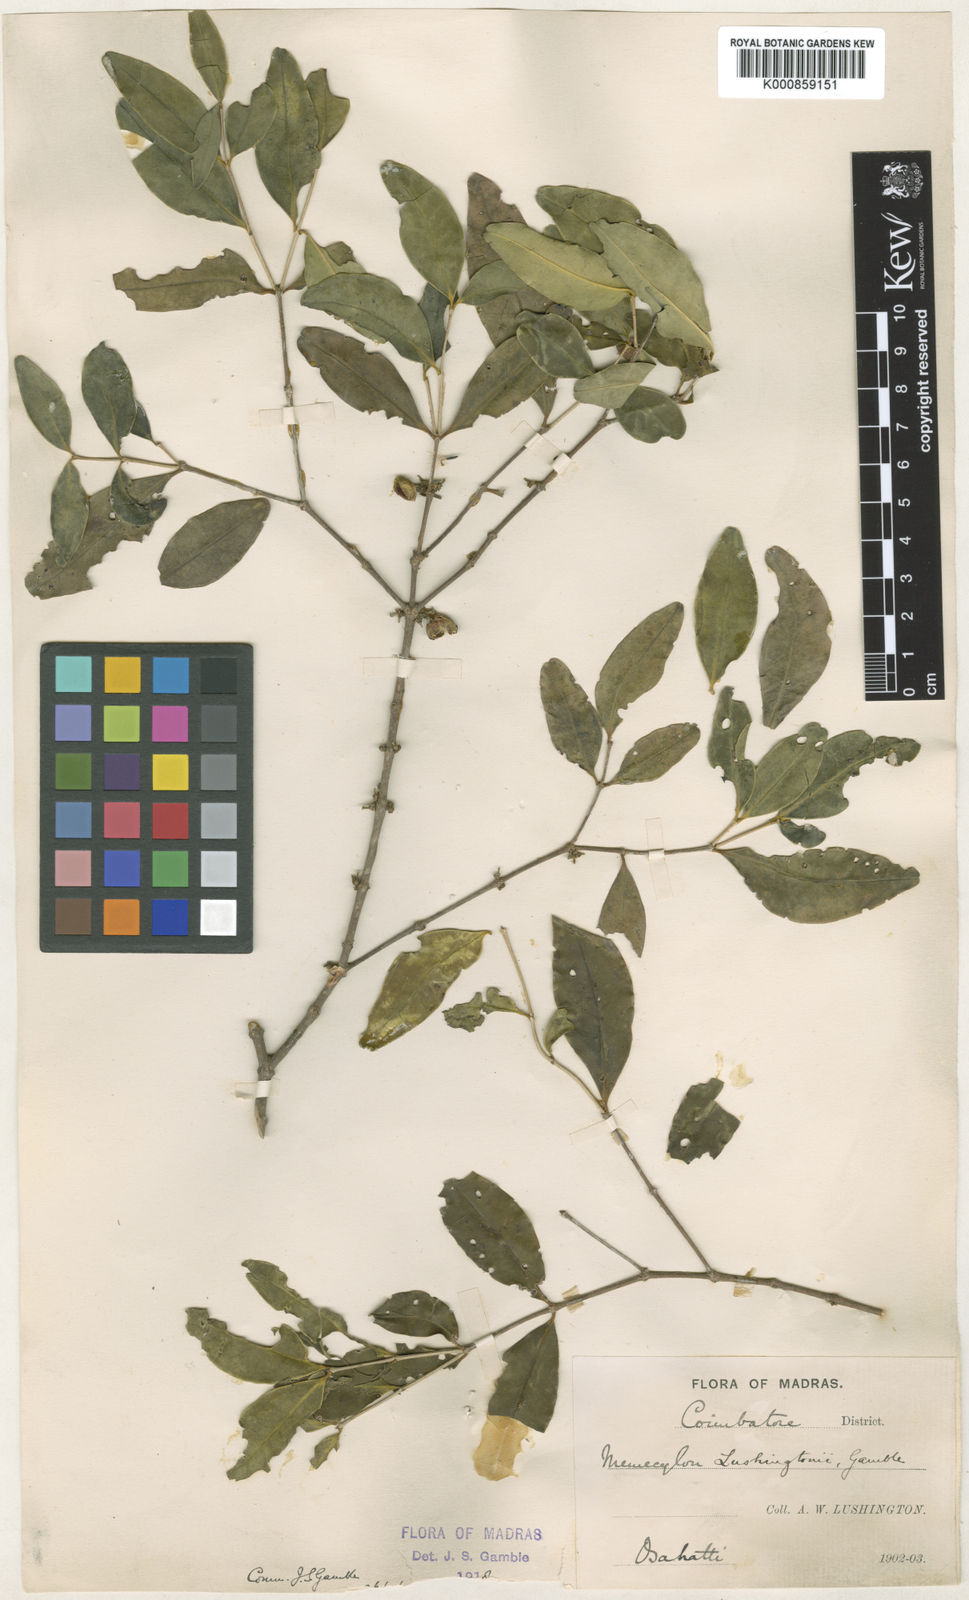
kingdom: Plantae
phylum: Tracheophyta
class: Magnoliopsida
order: Myrtales
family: Melastomataceae
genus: Memecylon
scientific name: Memecylon lushingtonii
